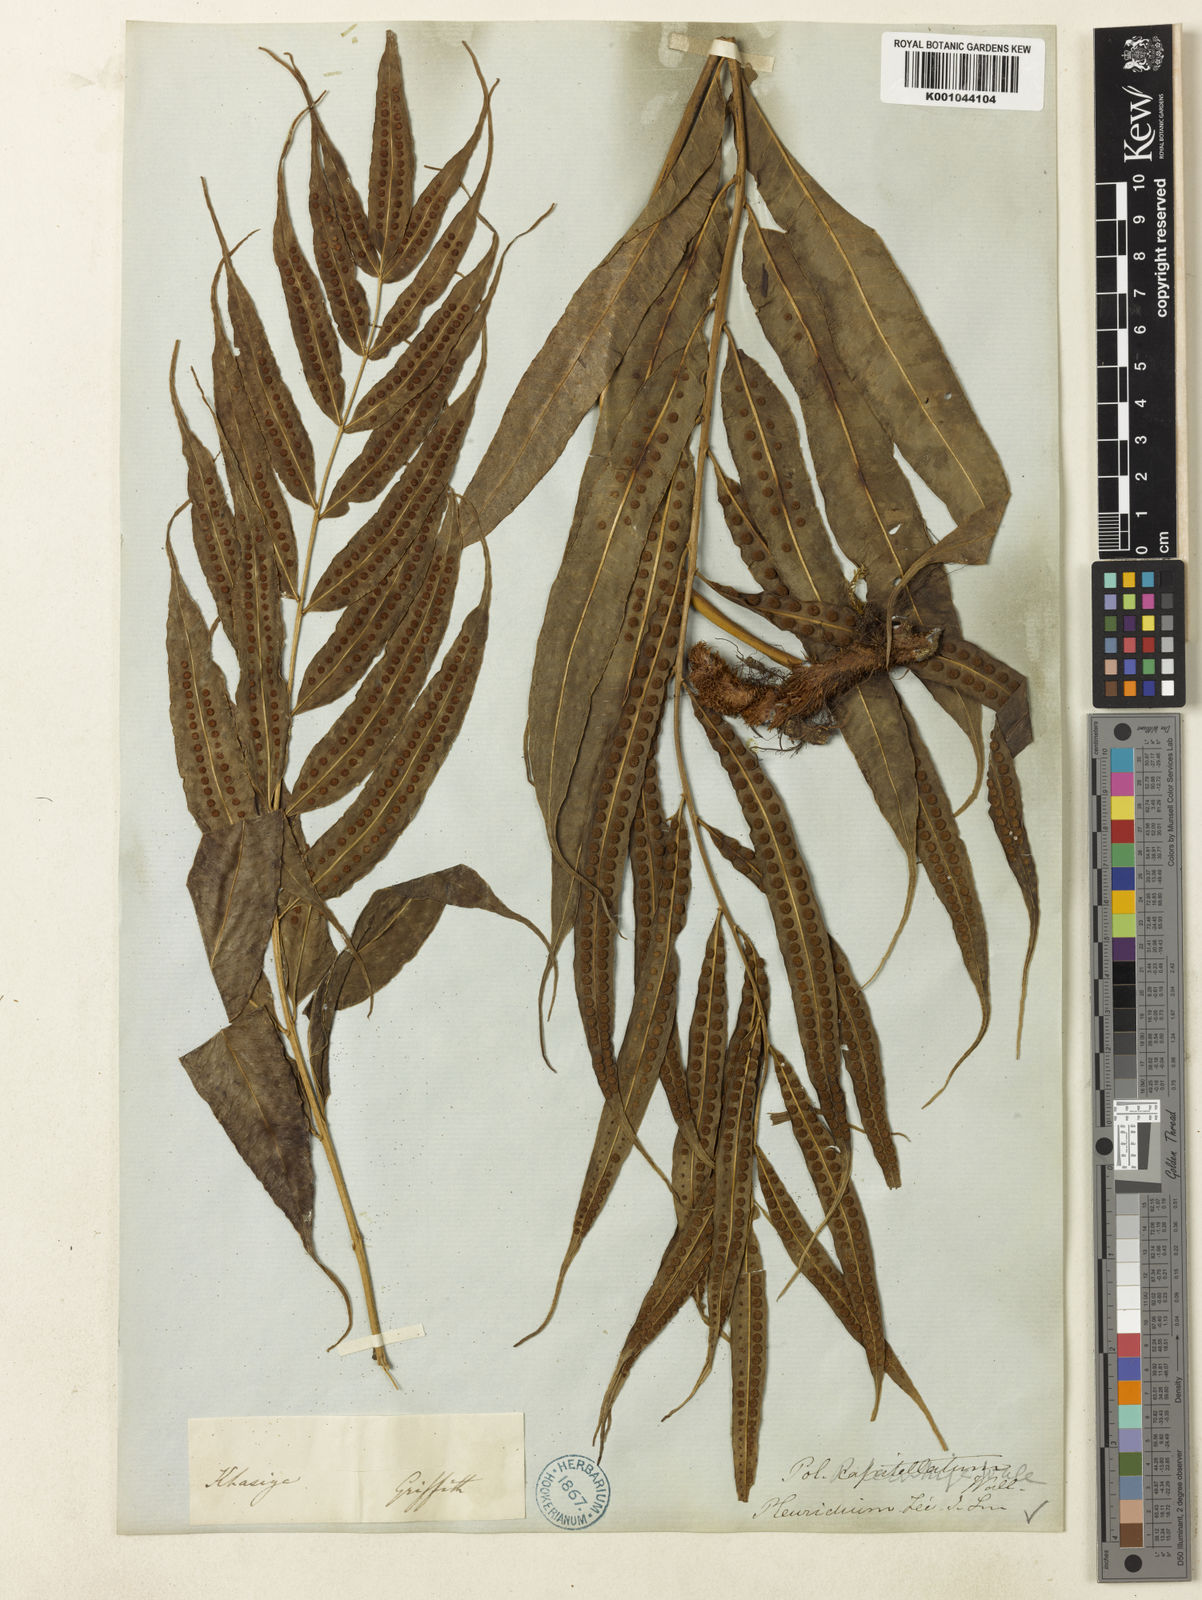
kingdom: Plantae
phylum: Tracheophyta
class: Polypodiopsida
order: Polypodiales
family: Polypodiaceae
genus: Selliguea
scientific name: Selliguea tenuicauda
